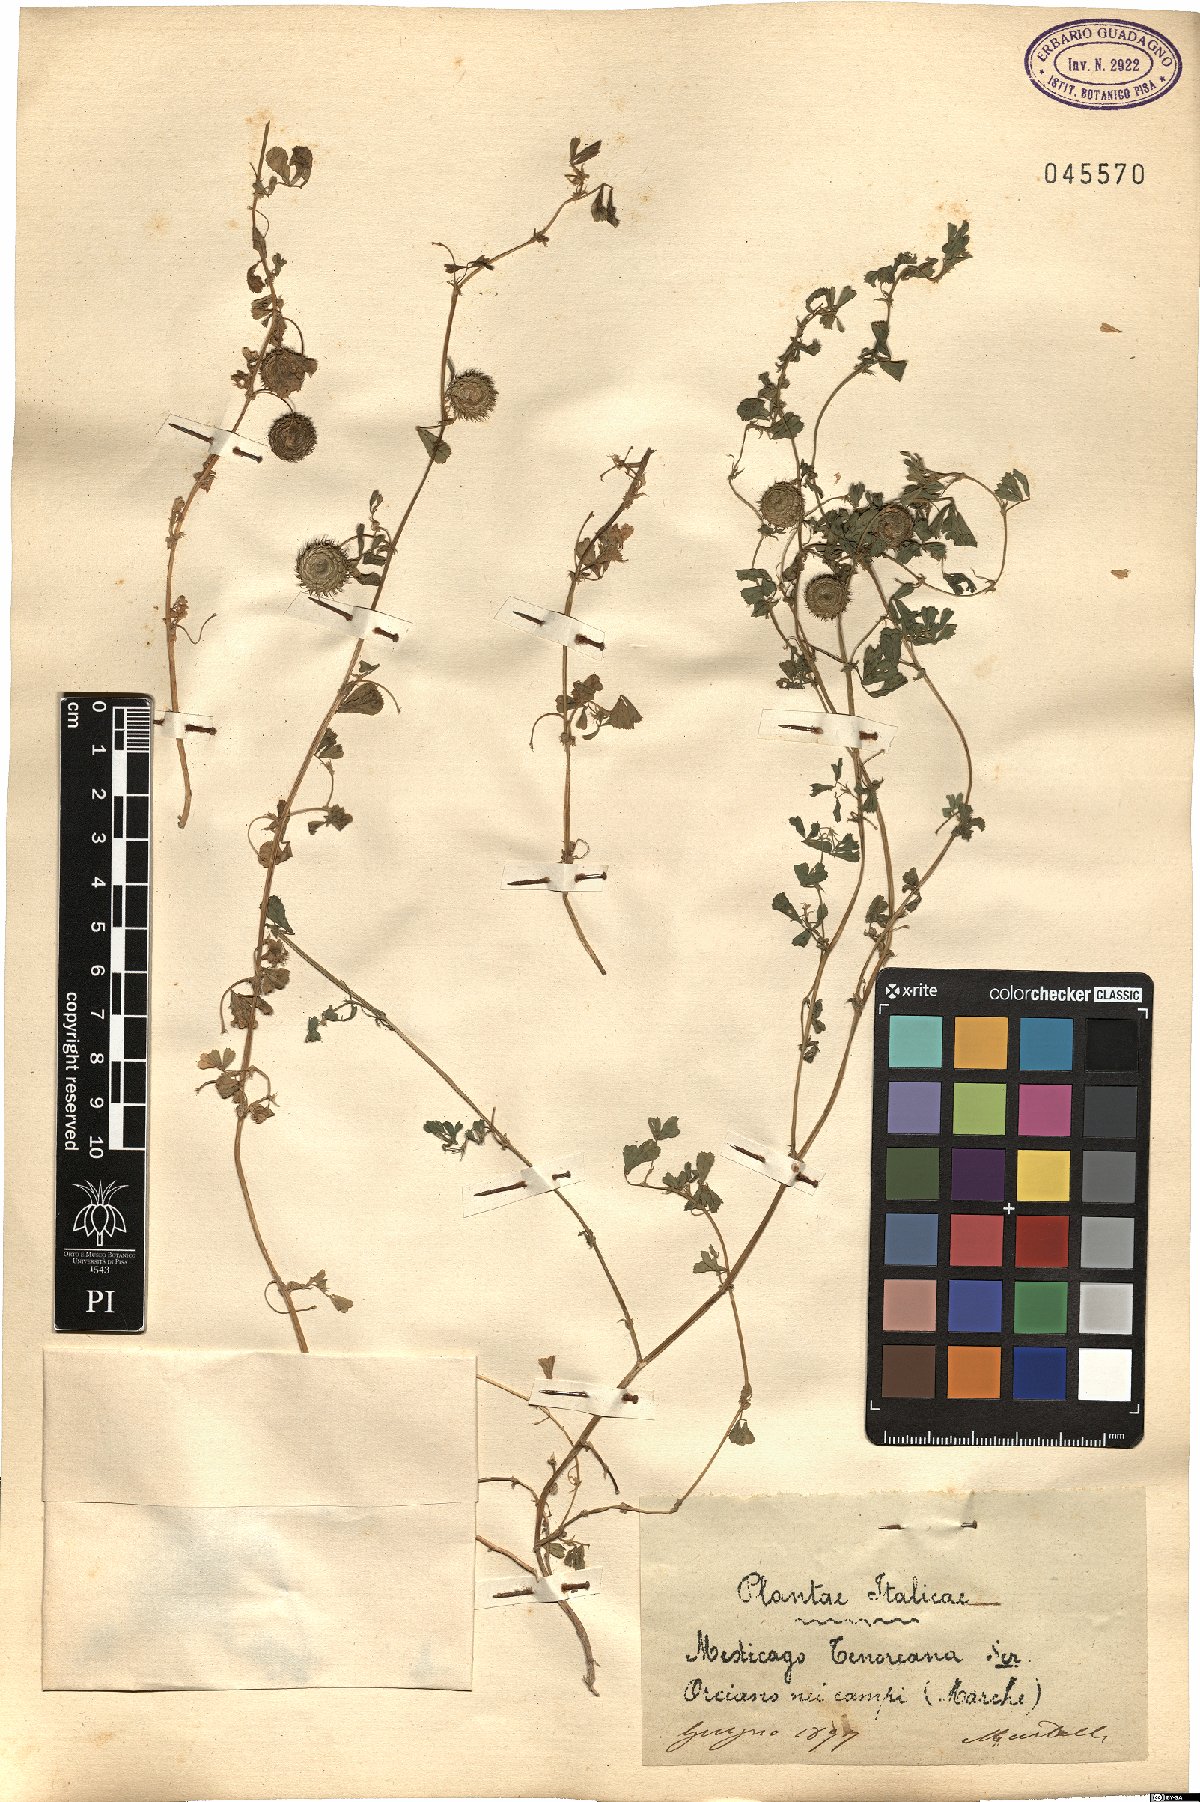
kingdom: Plantae
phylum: Tracheophyta
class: Magnoliopsida
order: Fabales
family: Fabaceae
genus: Medicago
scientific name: Medicago tenoreana
